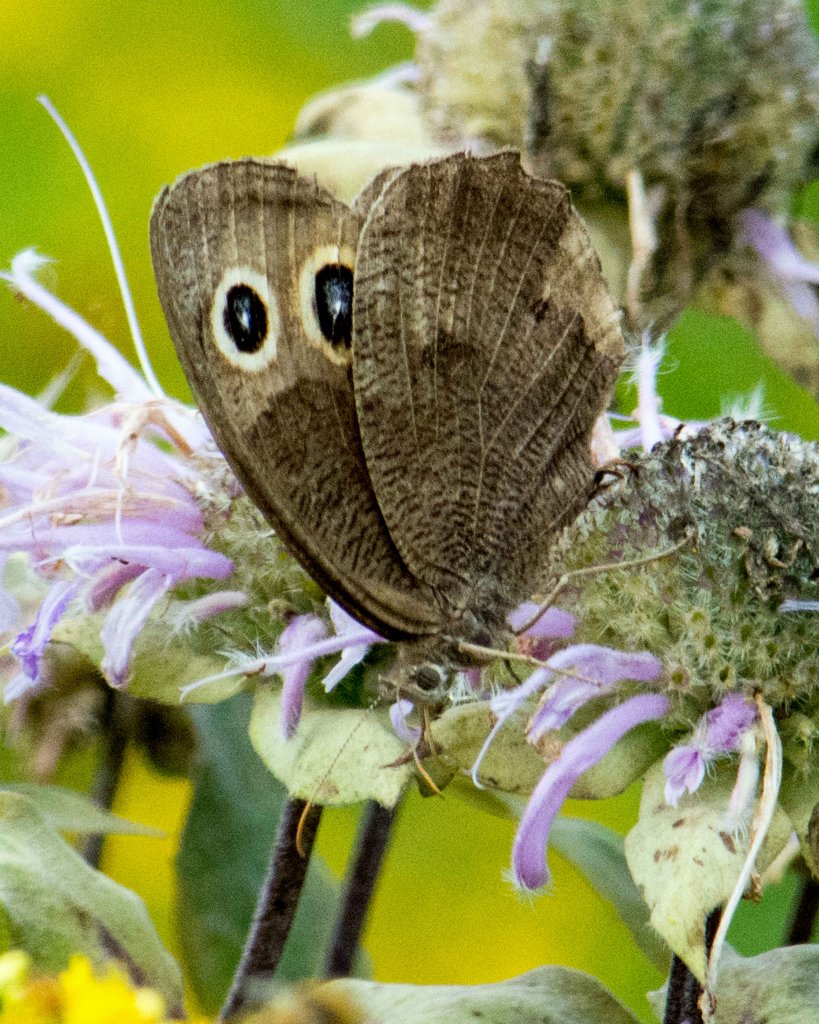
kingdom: Animalia
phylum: Arthropoda
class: Insecta
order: Lepidoptera
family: Nymphalidae
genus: Cercyonis
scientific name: Cercyonis pegala
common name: Common Wood-Nymph
